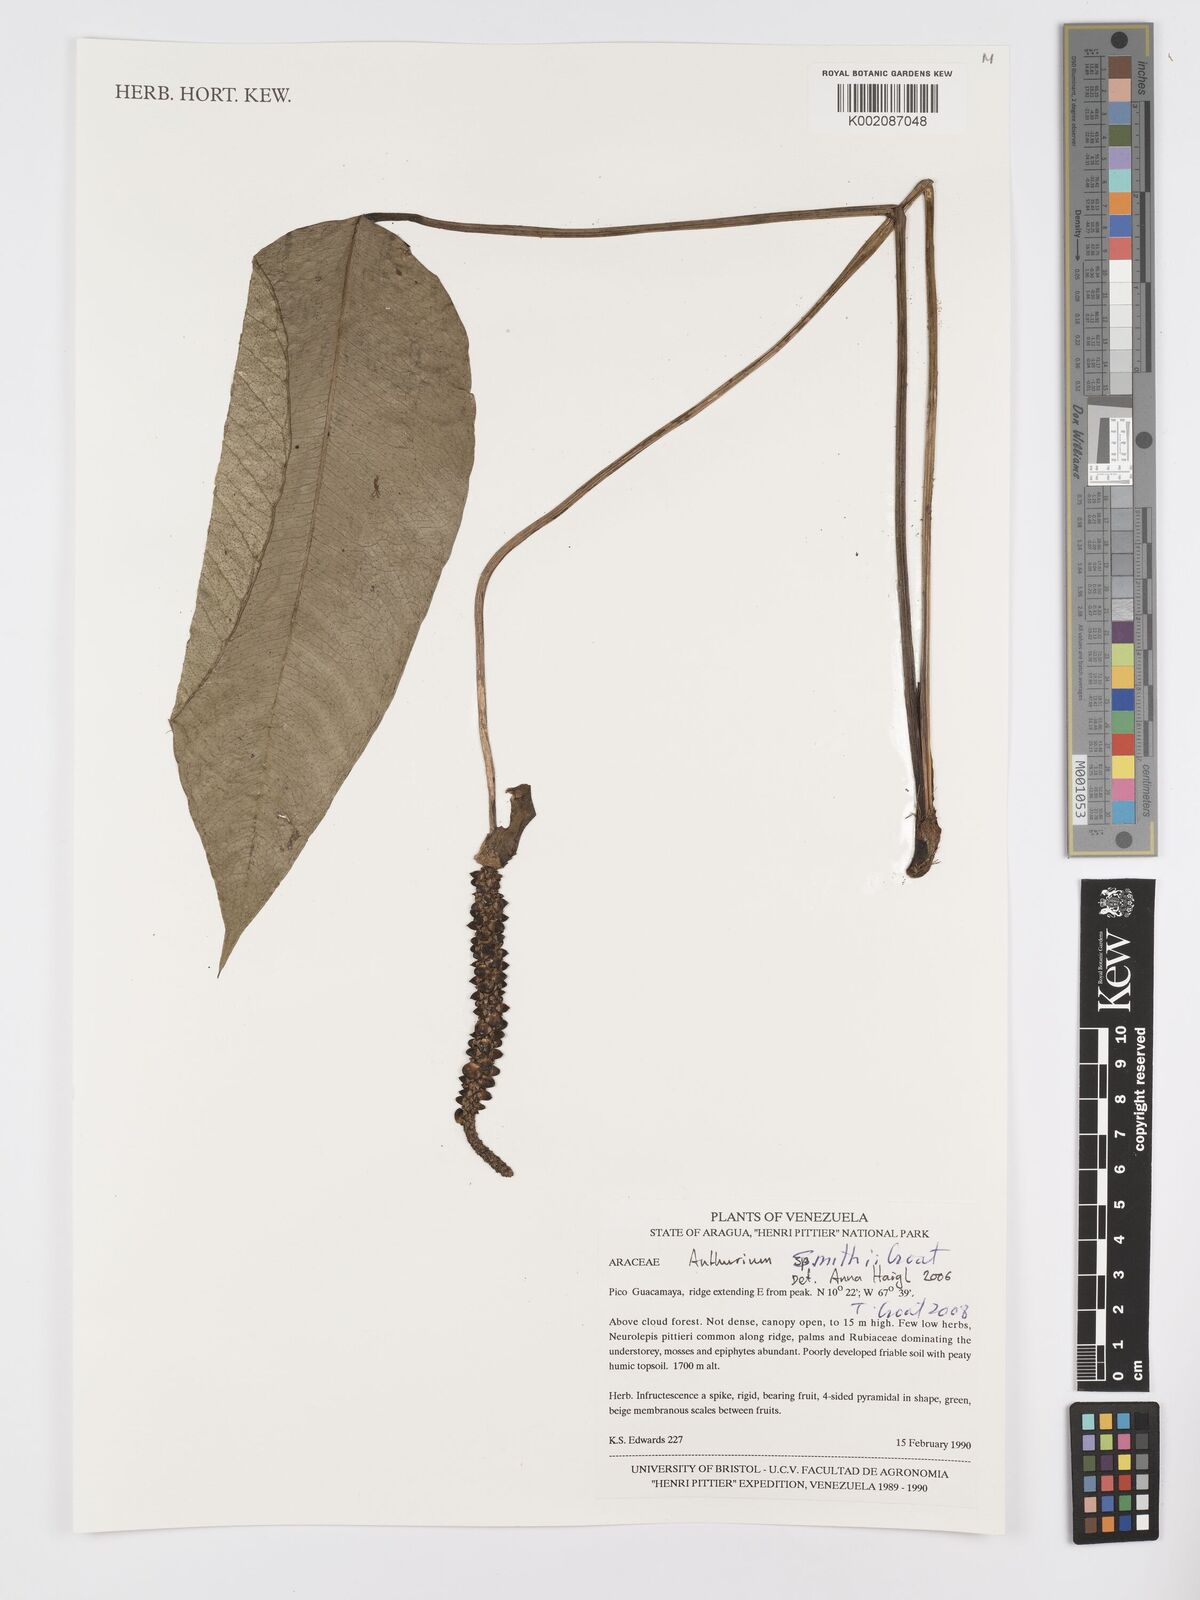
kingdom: Plantae
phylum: Tracheophyta
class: Liliopsida
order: Alismatales
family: Araceae
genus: Anthurium
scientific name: Anthurium smithii
